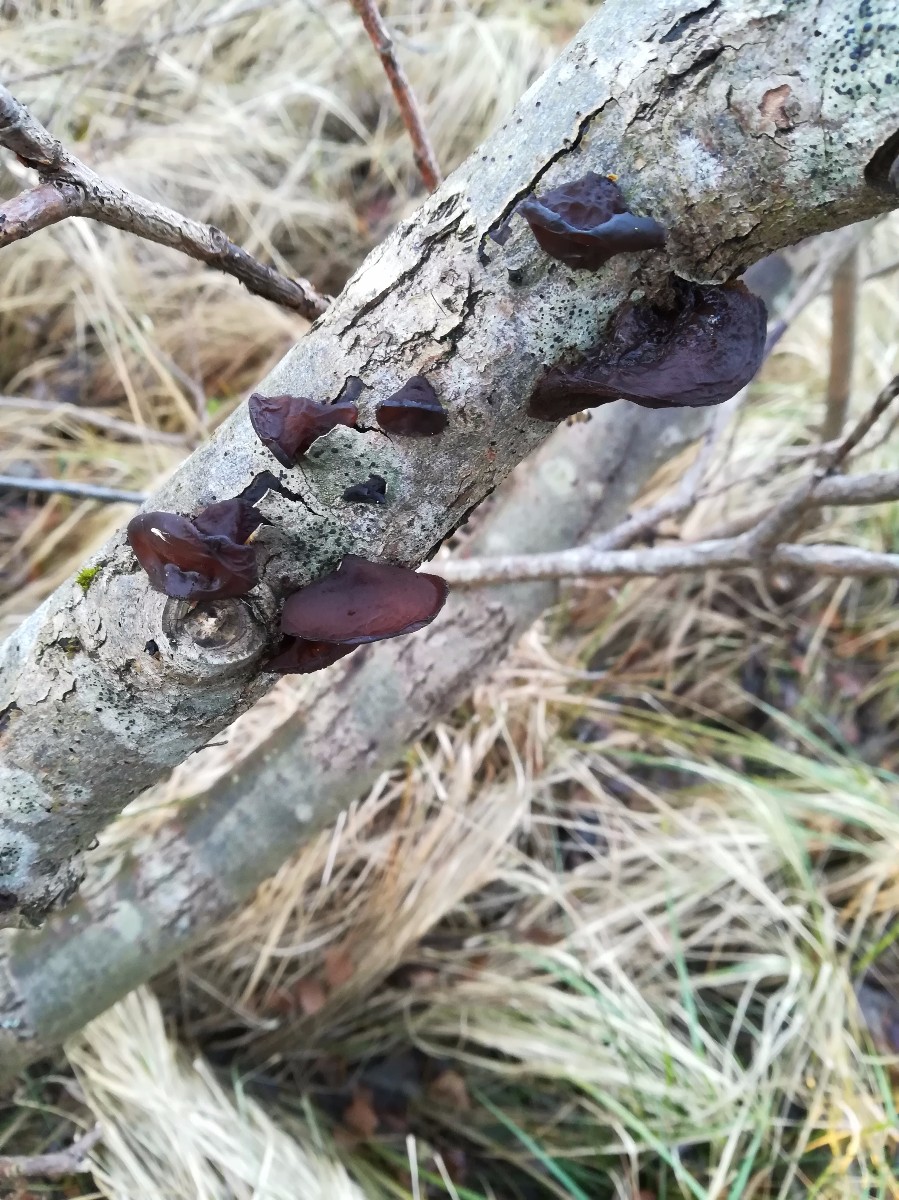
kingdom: Fungi
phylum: Basidiomycota
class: Agaricomycetes
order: Auriculariales
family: Auriculariaceae
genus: Exidia
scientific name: Exidia recisa
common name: pile-bævretop
